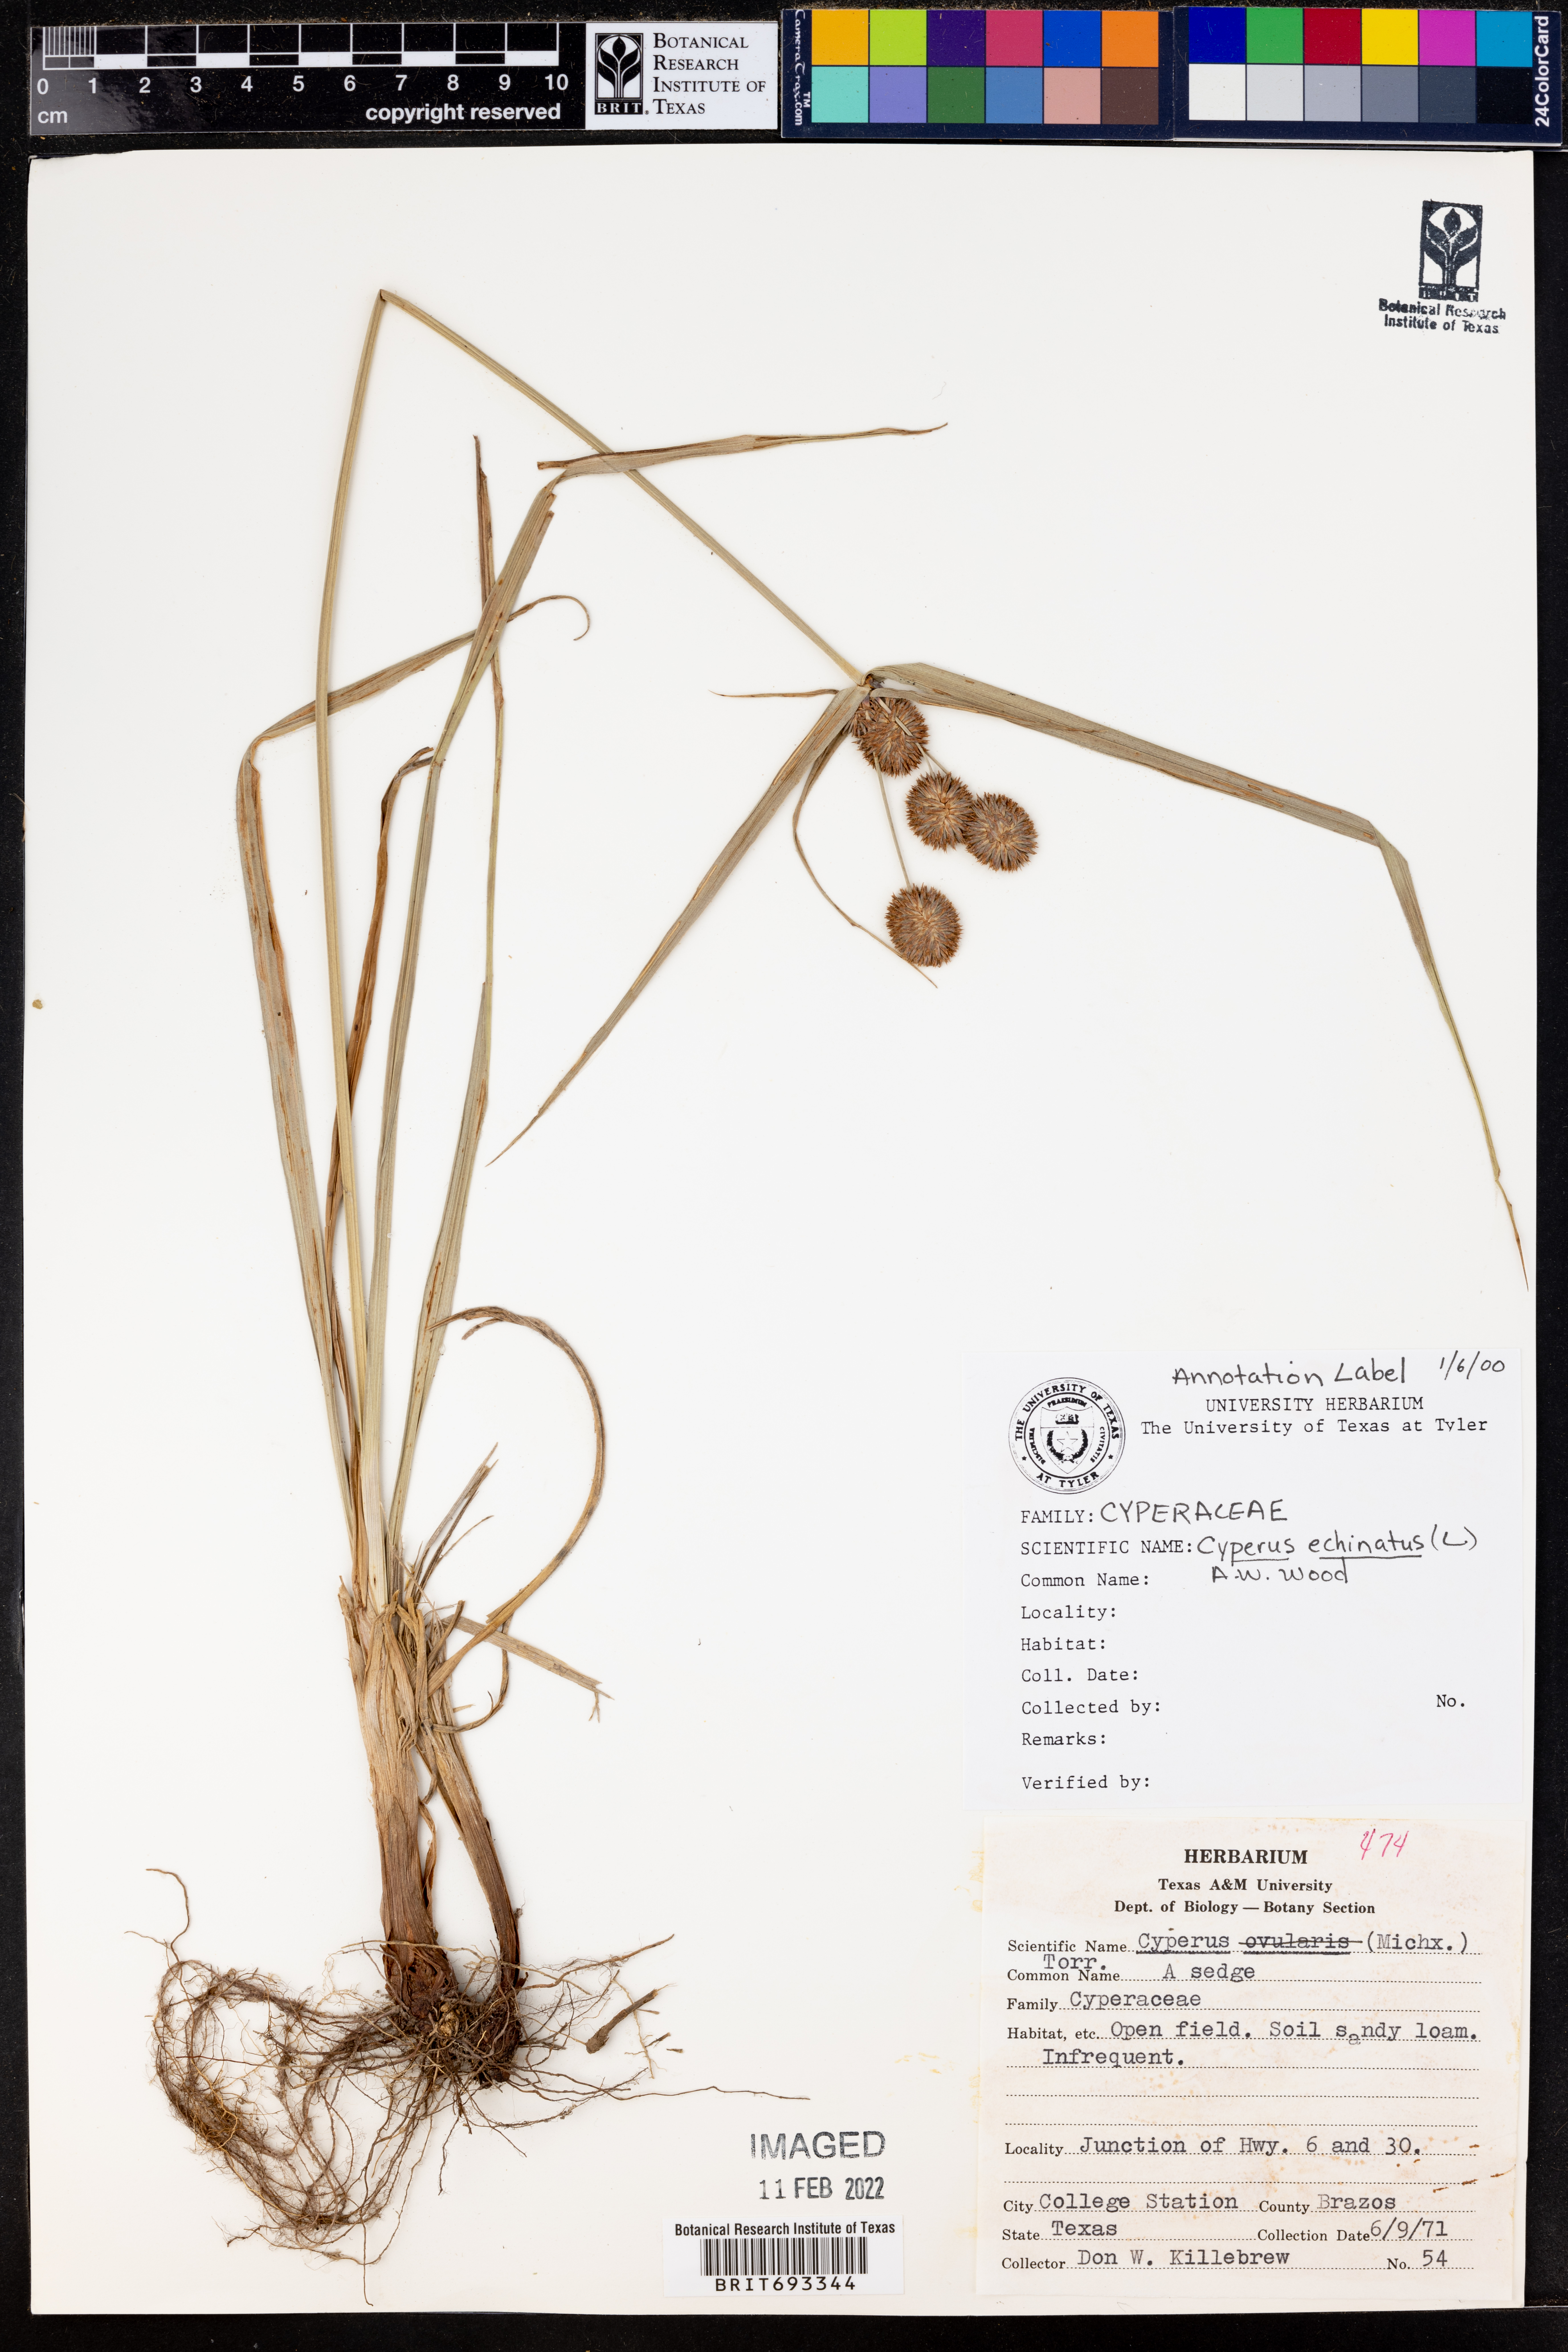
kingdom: Plantae
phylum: Tracheophyta
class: Liliopsida
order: Poales
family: Cyperaceae
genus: Cyperus
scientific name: Cyperus echinatus
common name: Teasel sedge
